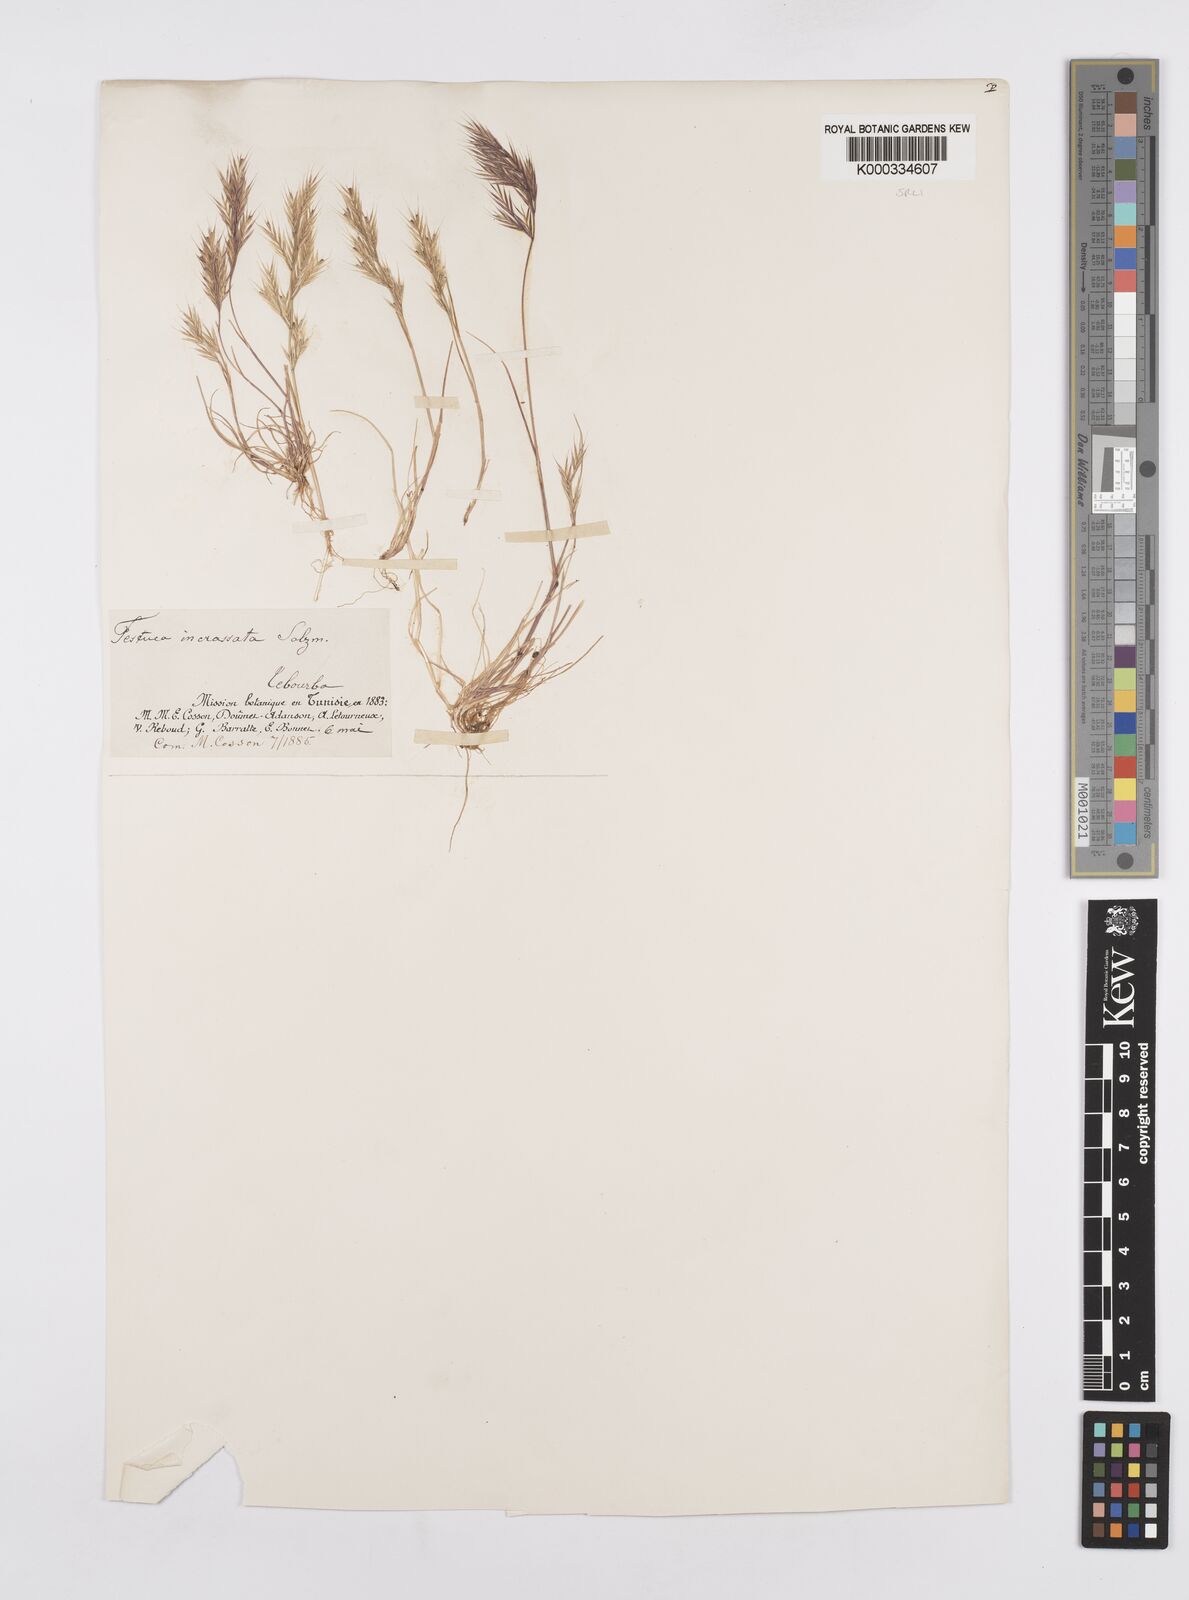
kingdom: Plantae
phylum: Tracheophyta
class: Liliopsida
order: Poales
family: Poaceae
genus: Vulpiella
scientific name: Vulpiella stipoides
